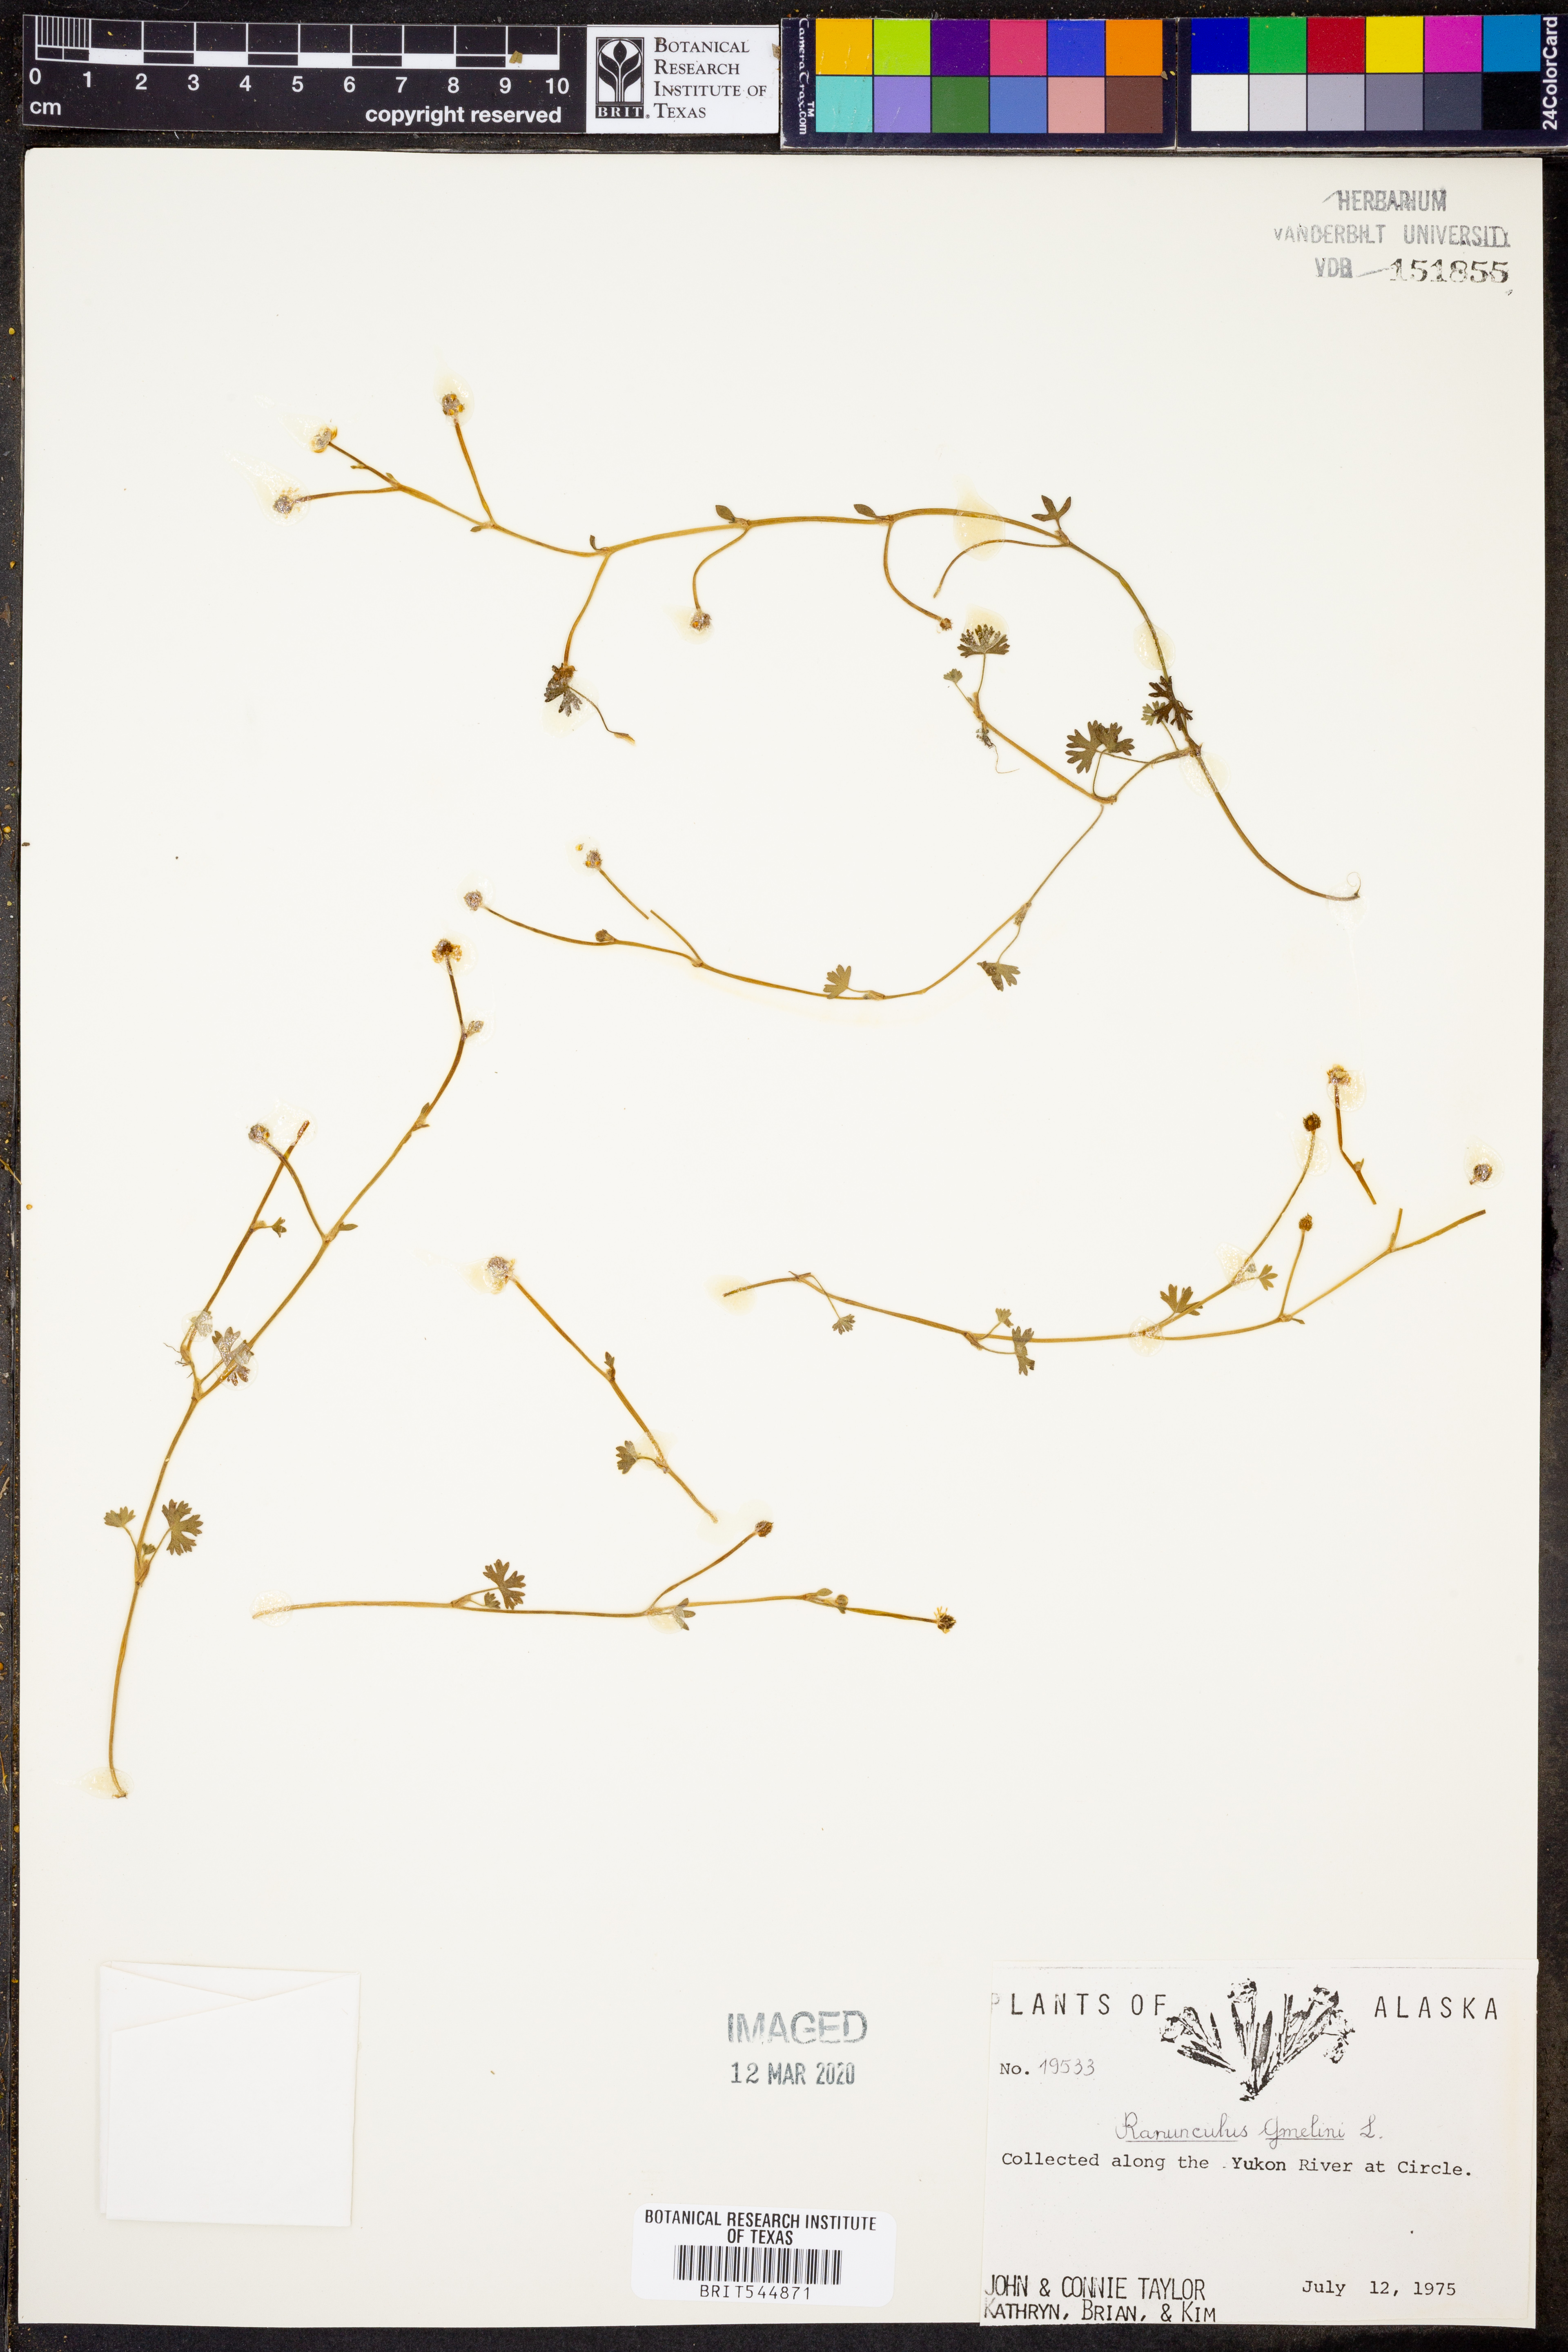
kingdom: Plantae
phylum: Tracheophyta
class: Magnoliopsida
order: Ranunculales
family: Ranunculaceae
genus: Ranunculus
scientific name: Ranunculus aquatilis
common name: Common water-crowfoot
